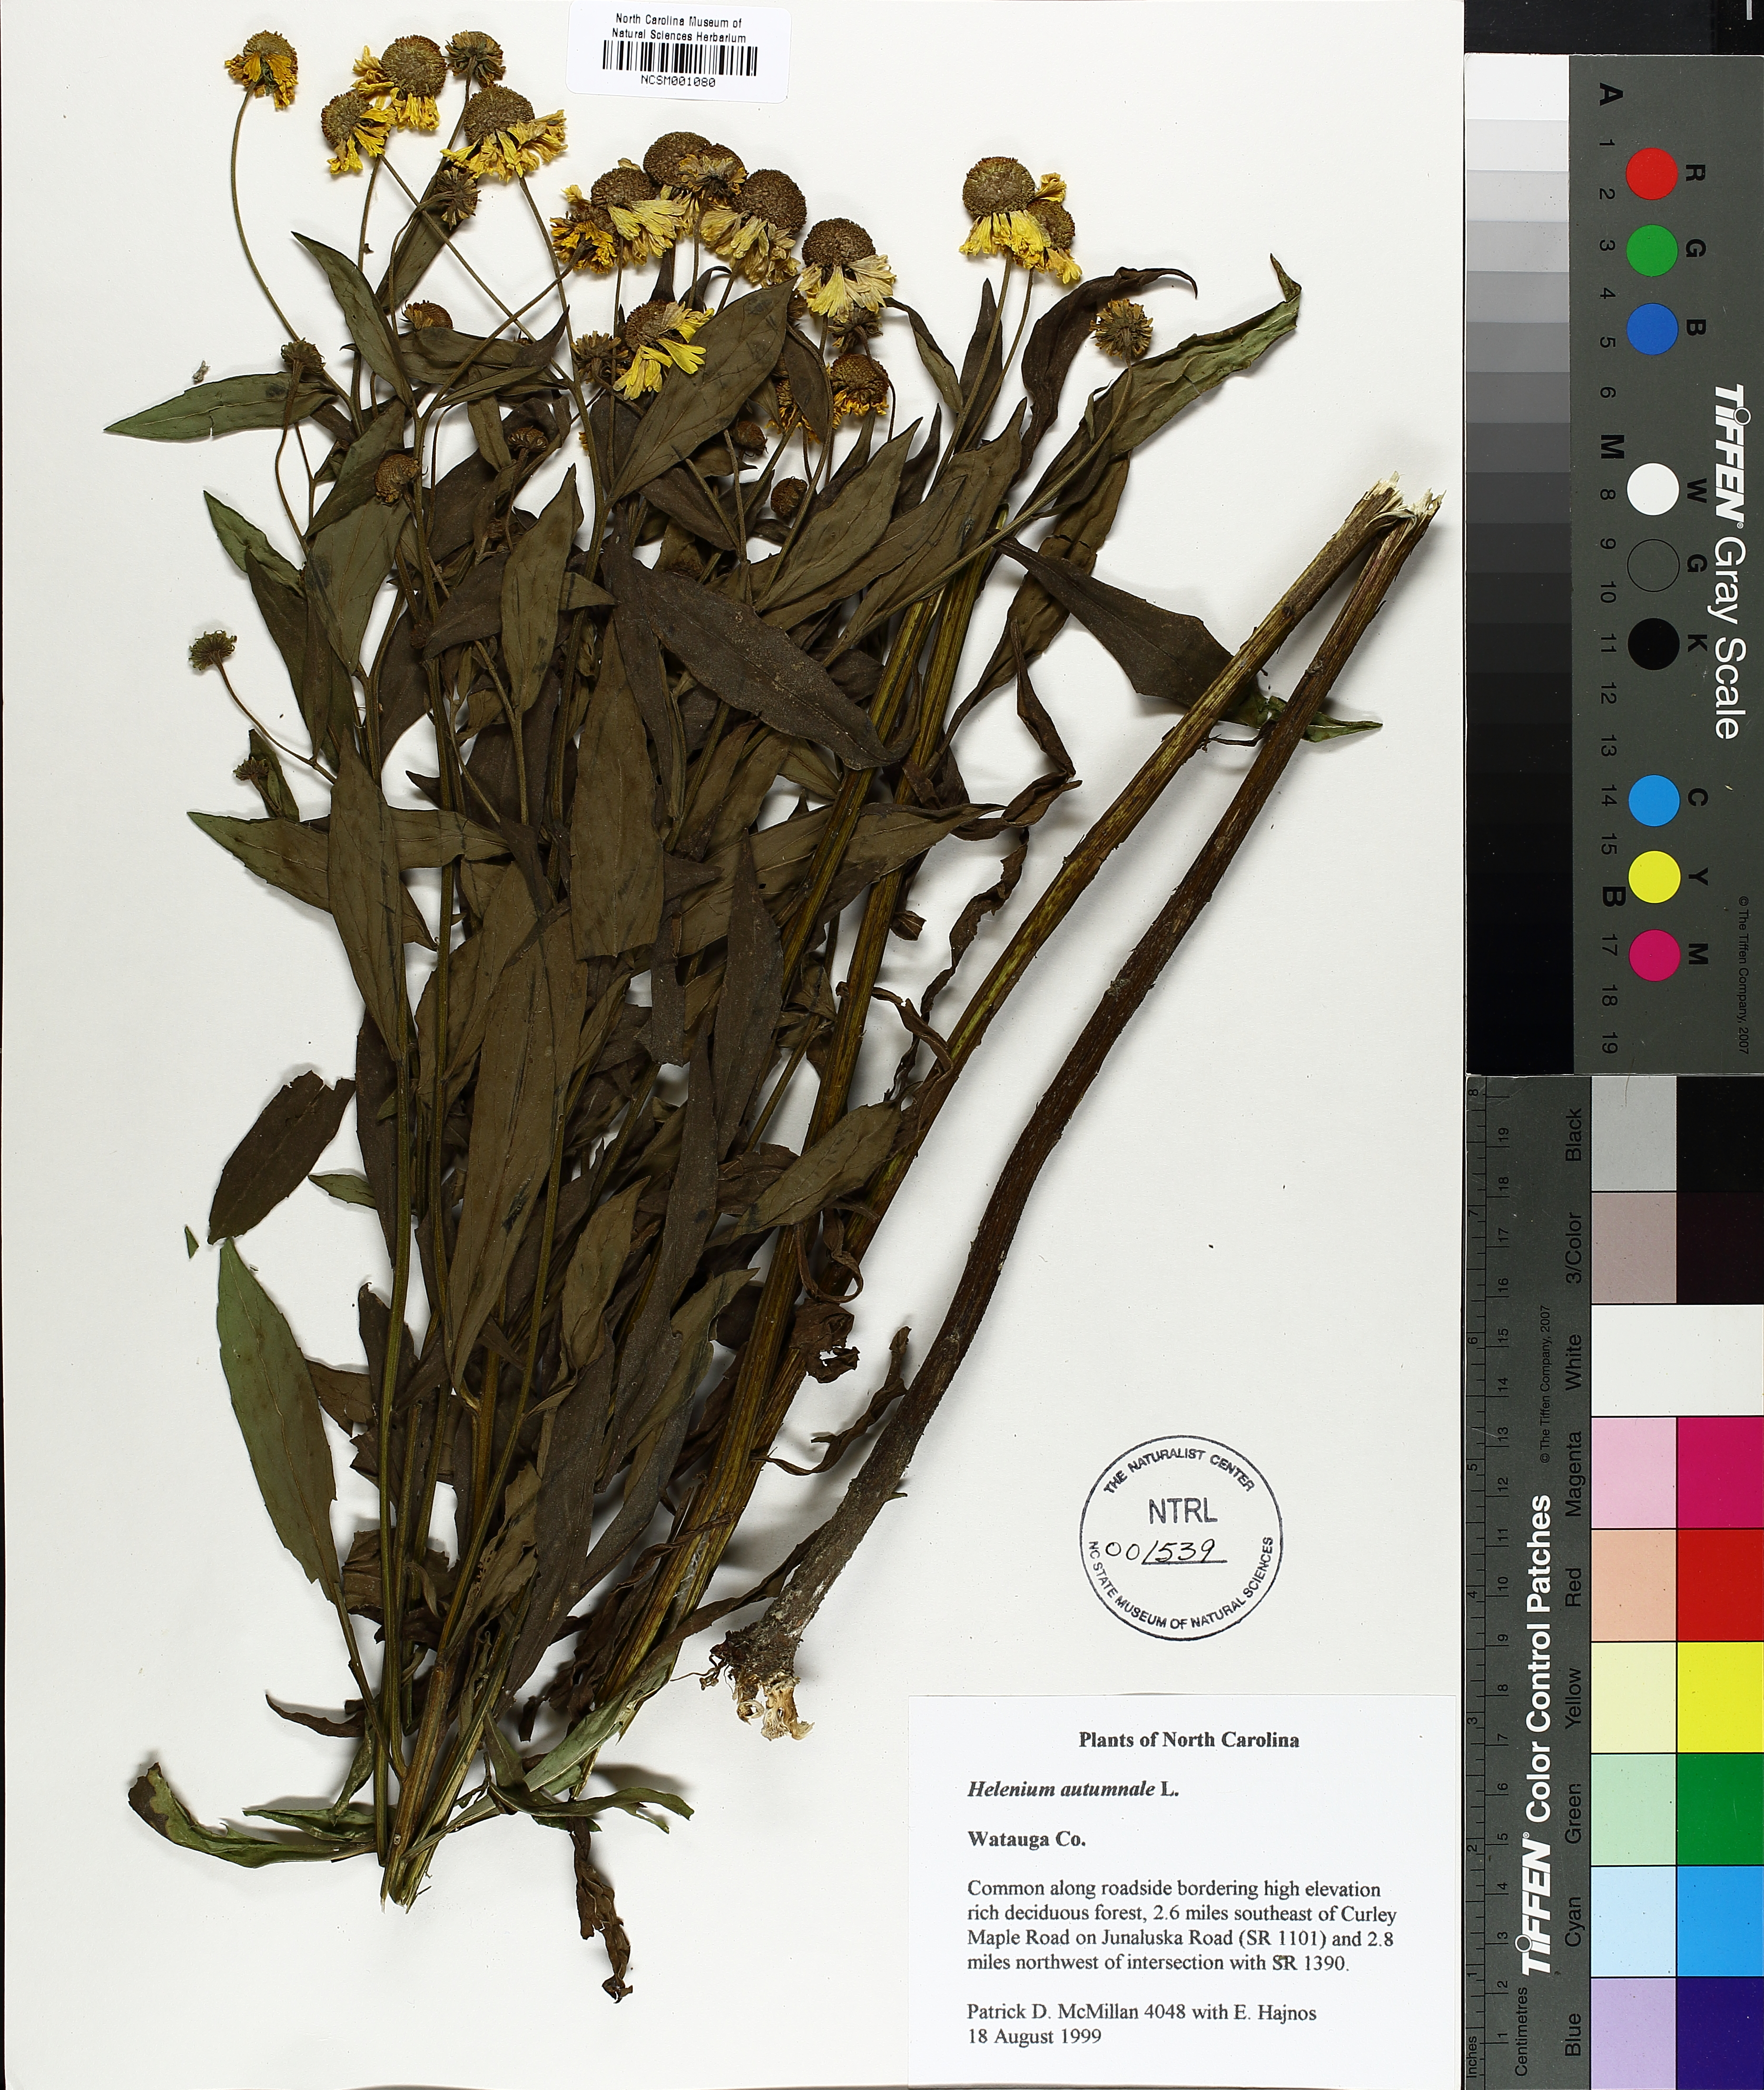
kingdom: Plantae
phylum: Tracheophyta
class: Magnoliopsida
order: Asterales
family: Asteraceae
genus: Helenium
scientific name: Helenium autumnale
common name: Sneezeweed
